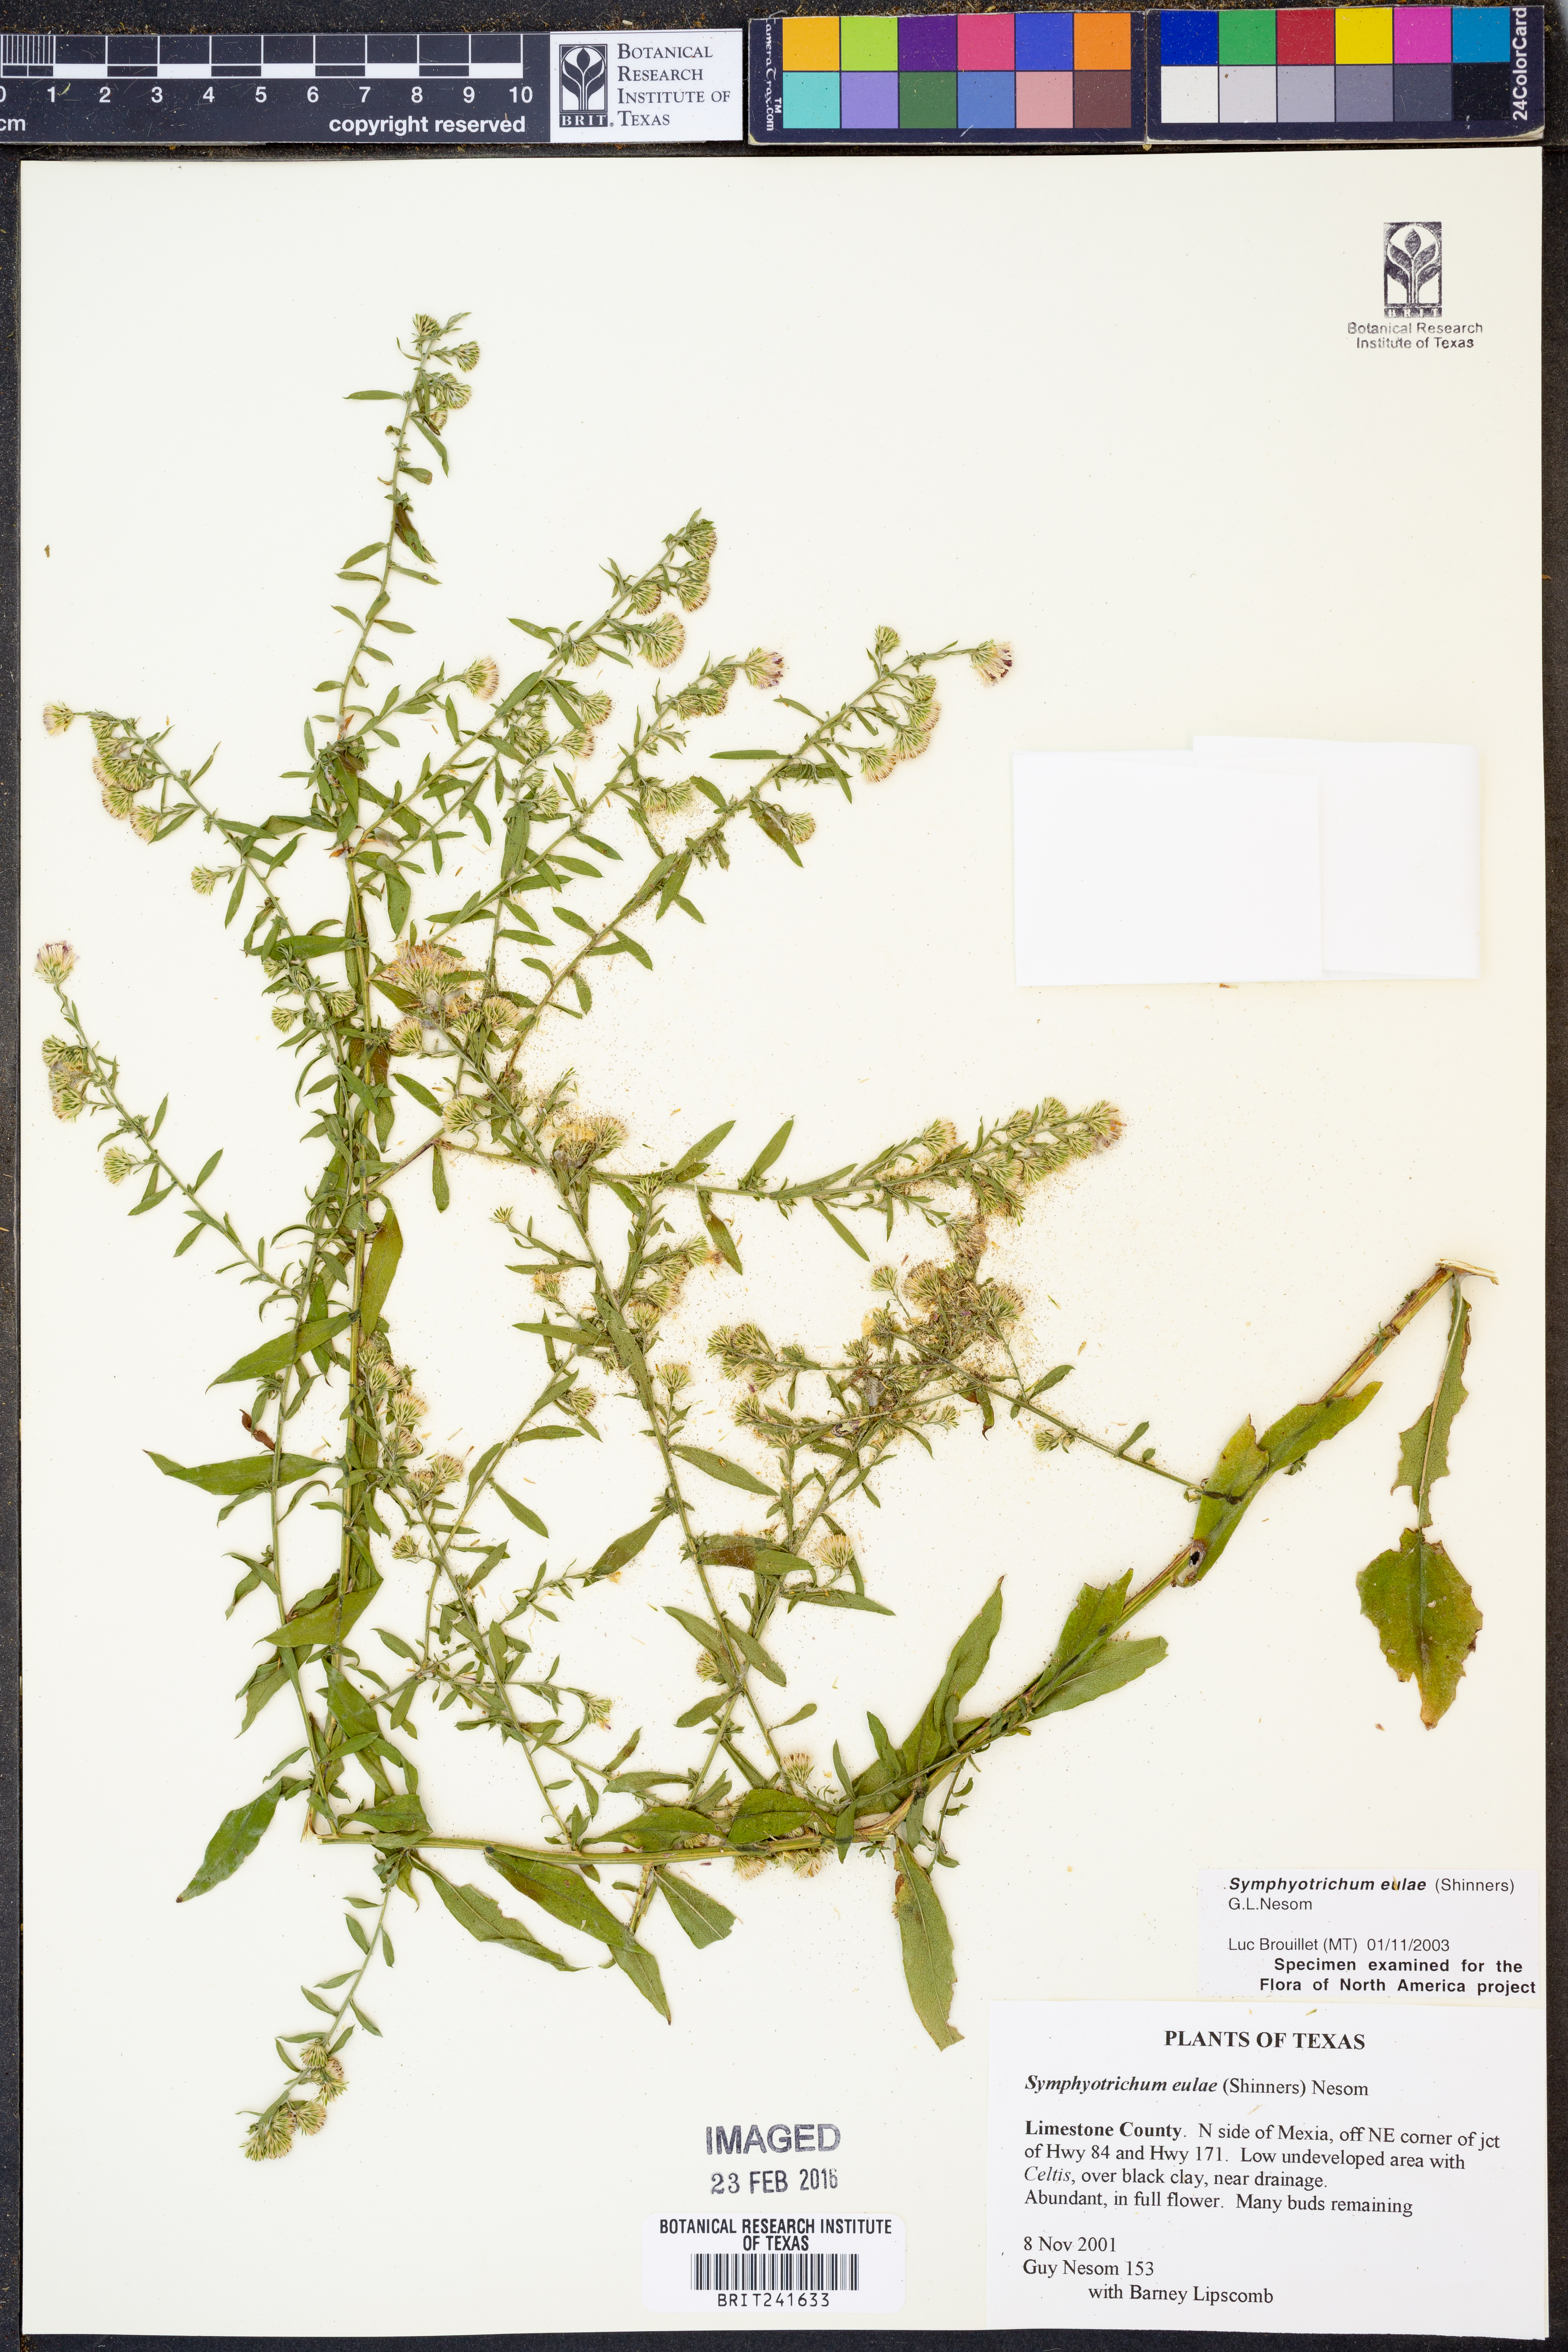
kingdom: Plantae
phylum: Tracheophyta
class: Magnoliopsida
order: Asterales
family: Asteraceae
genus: Symphyotrichum
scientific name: Symphyotrichum eulae
